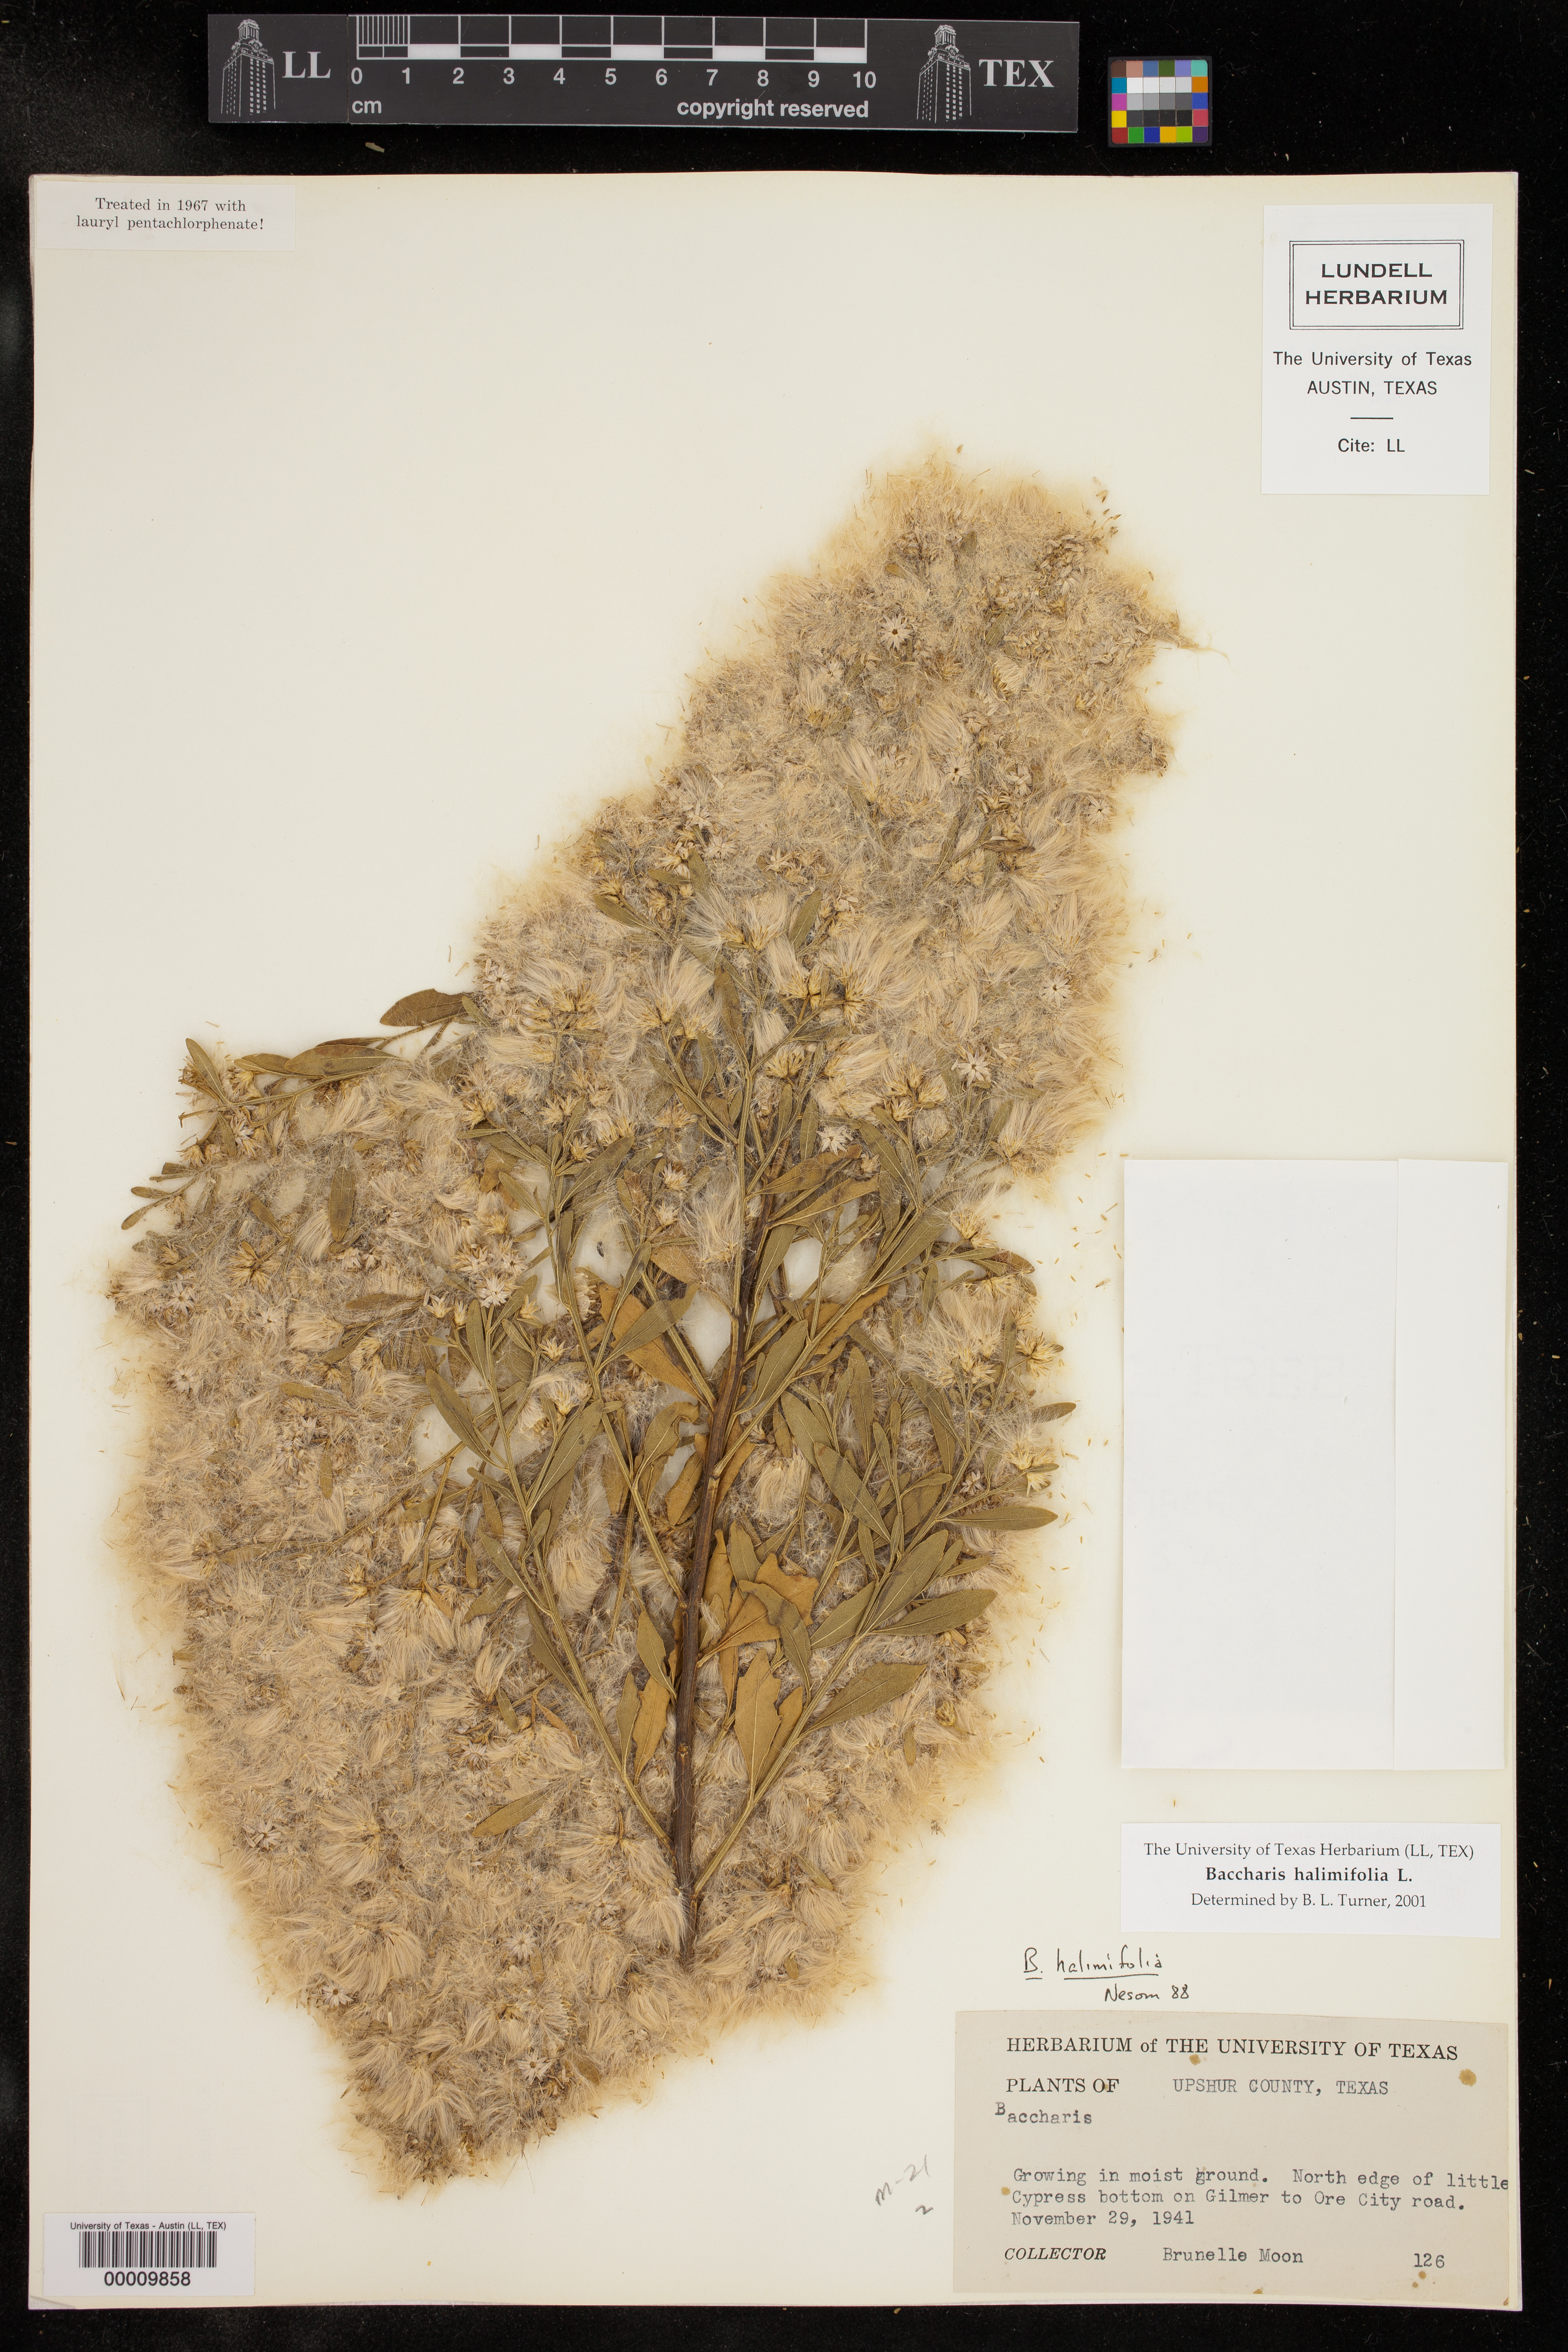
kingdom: Plantae
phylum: Tracheophyta
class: Magnoliopsida
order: Asterales
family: Asteraceae
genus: Baccharis
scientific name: Baccharis halimifolia
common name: Eastern baccharis
